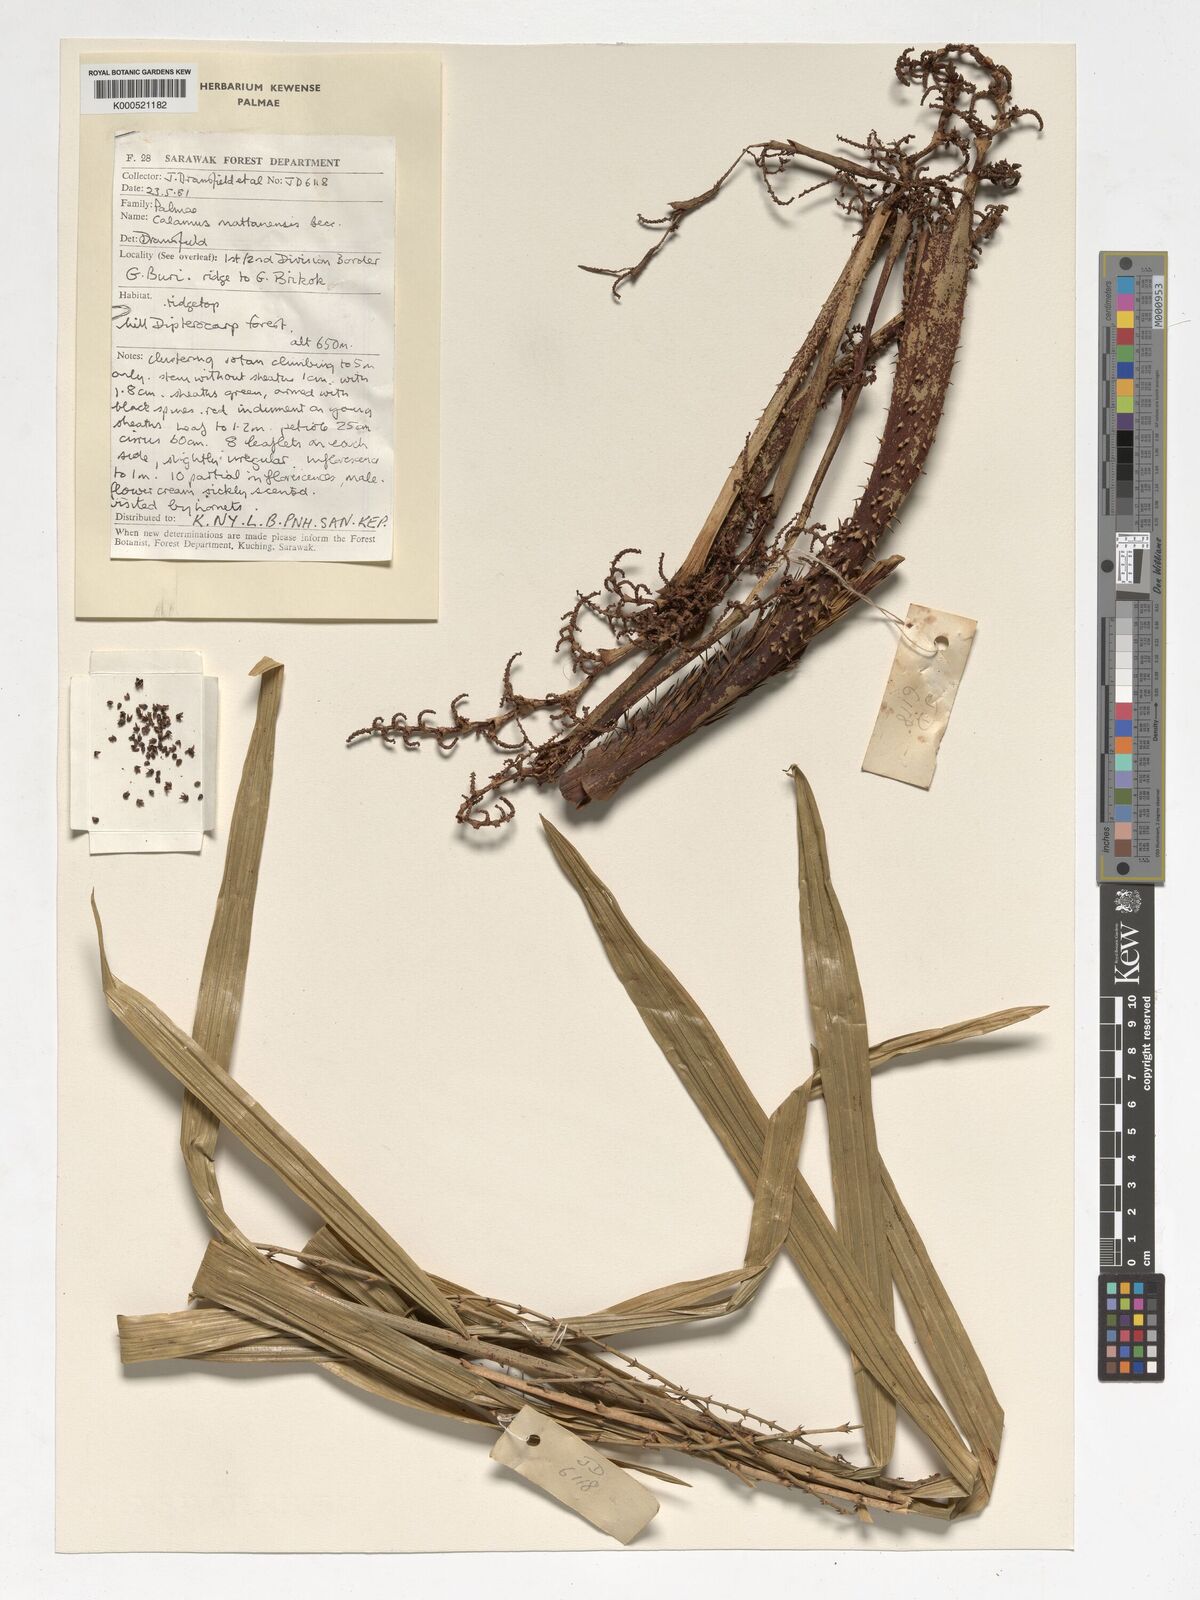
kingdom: Plantae
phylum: Tracheophyta
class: Liliopsida
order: Arecales
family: Arecaceae
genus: Calamus
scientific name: Calamus
